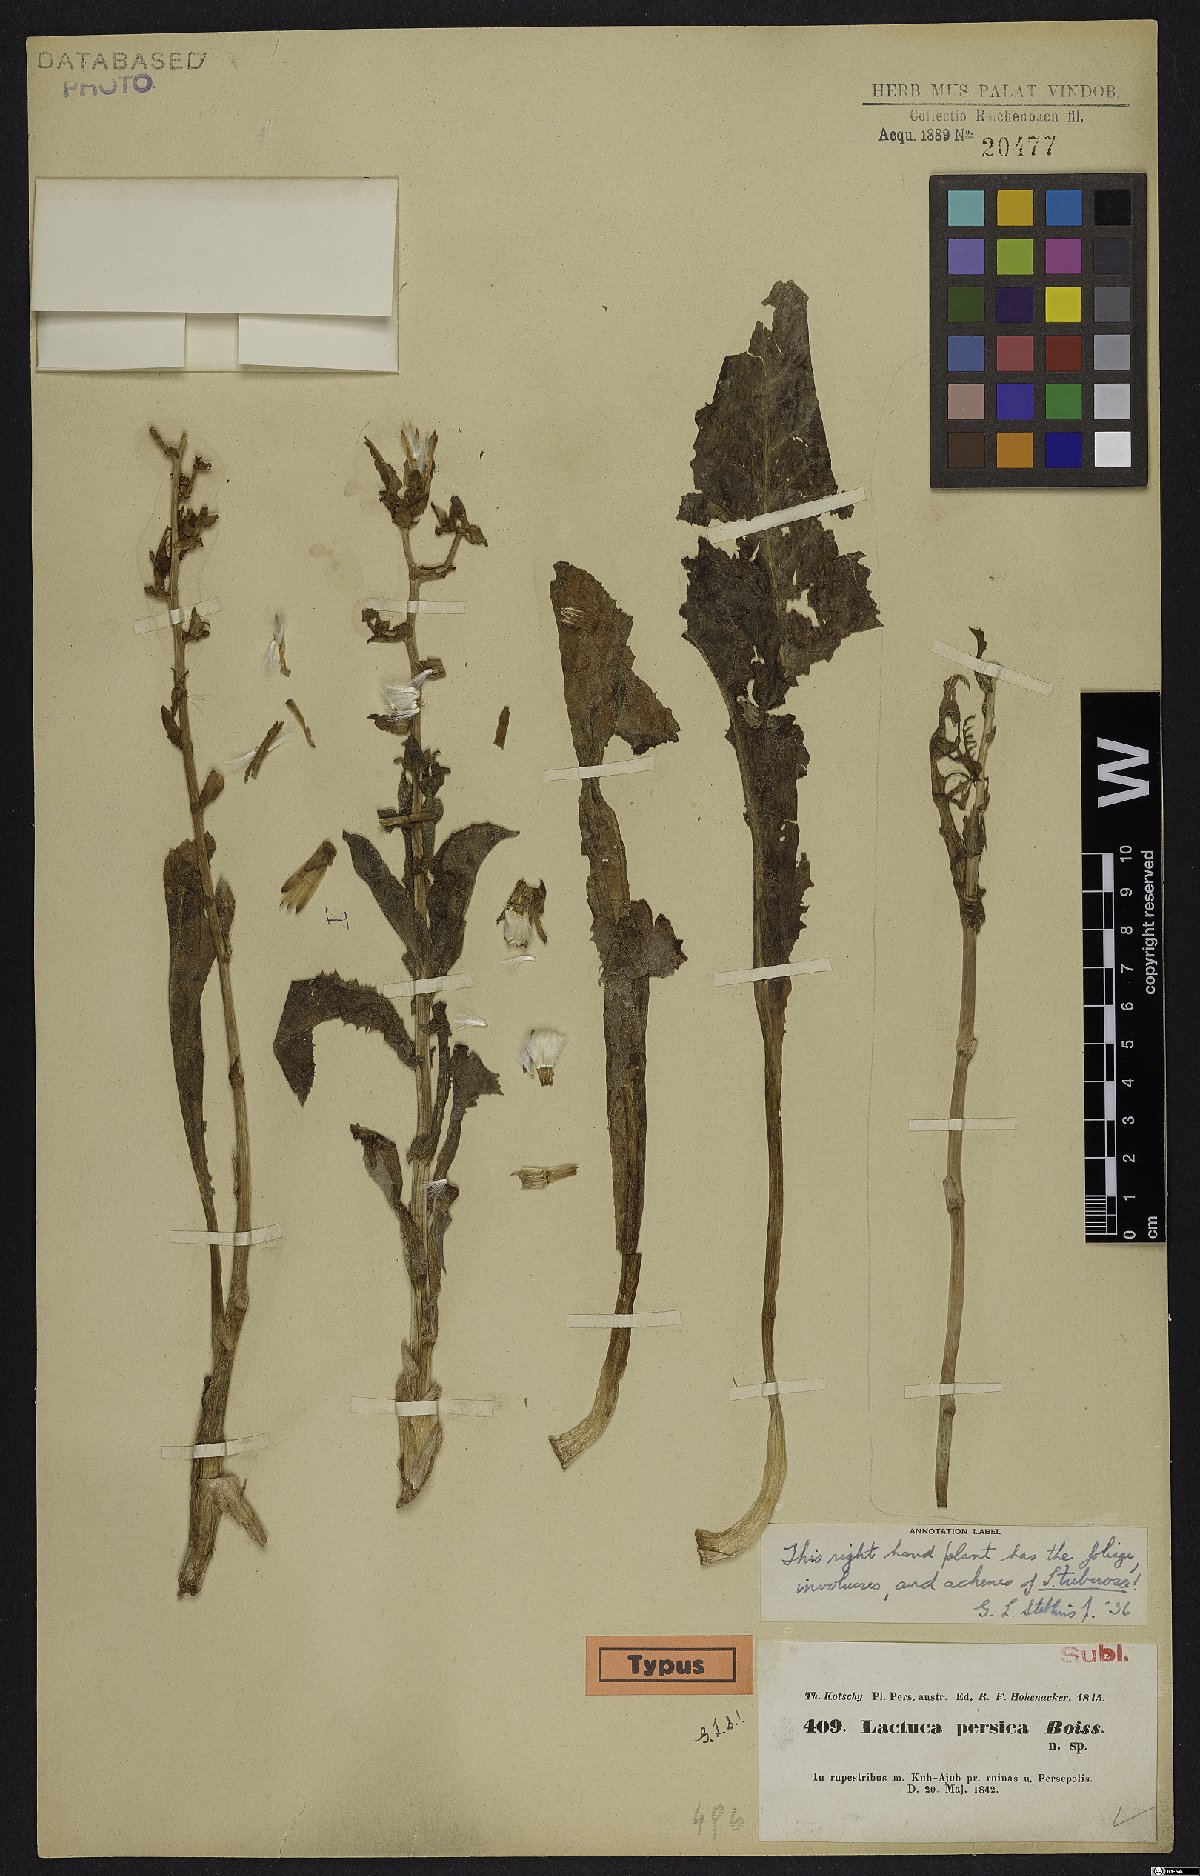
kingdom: Plantae
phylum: Tracheophyta
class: Magnoliopsida
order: Asterales
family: Asteraceae
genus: Lactuca
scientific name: Lactuca persica
